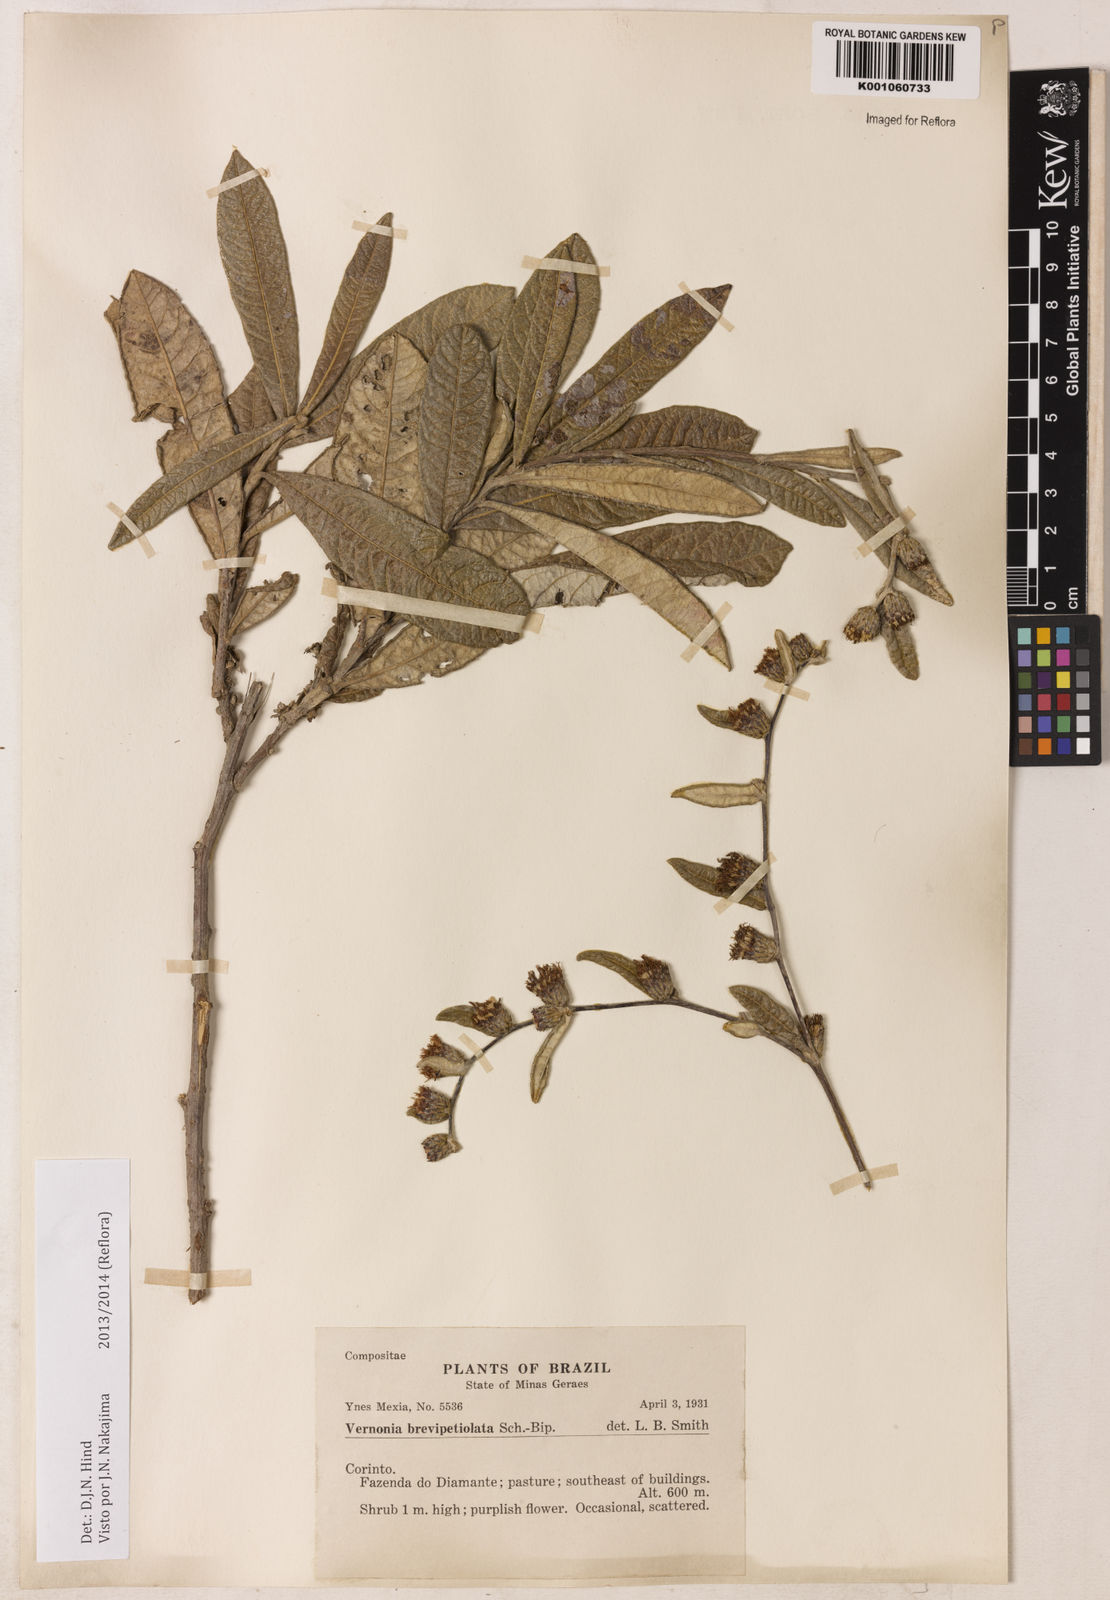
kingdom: Plantae
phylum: Tracheophyta
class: Magnoliopsida
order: Asterales
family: Asteraceae
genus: Lessingianthus
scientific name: Lessingianthus brevipetiolatus
